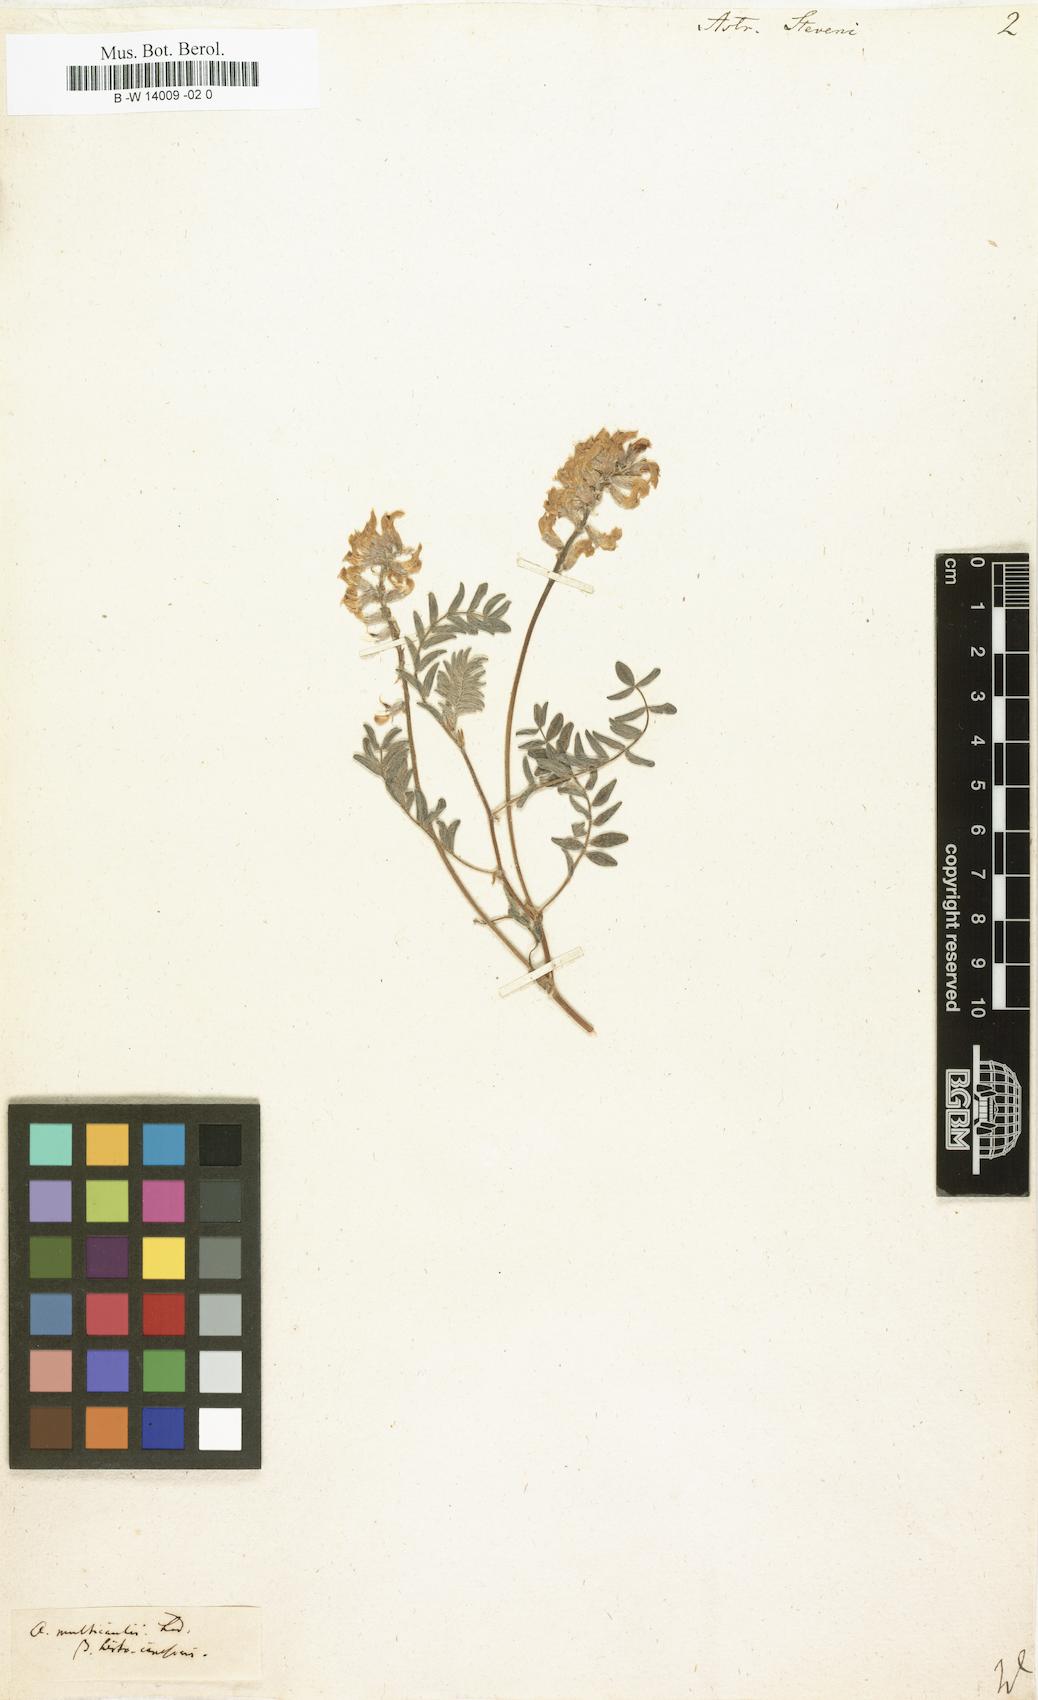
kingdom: Plantae
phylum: Tracheophyta
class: Magnoliopsida
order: Fabales
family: Fabaceae
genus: Astragalus
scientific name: Astragalus
